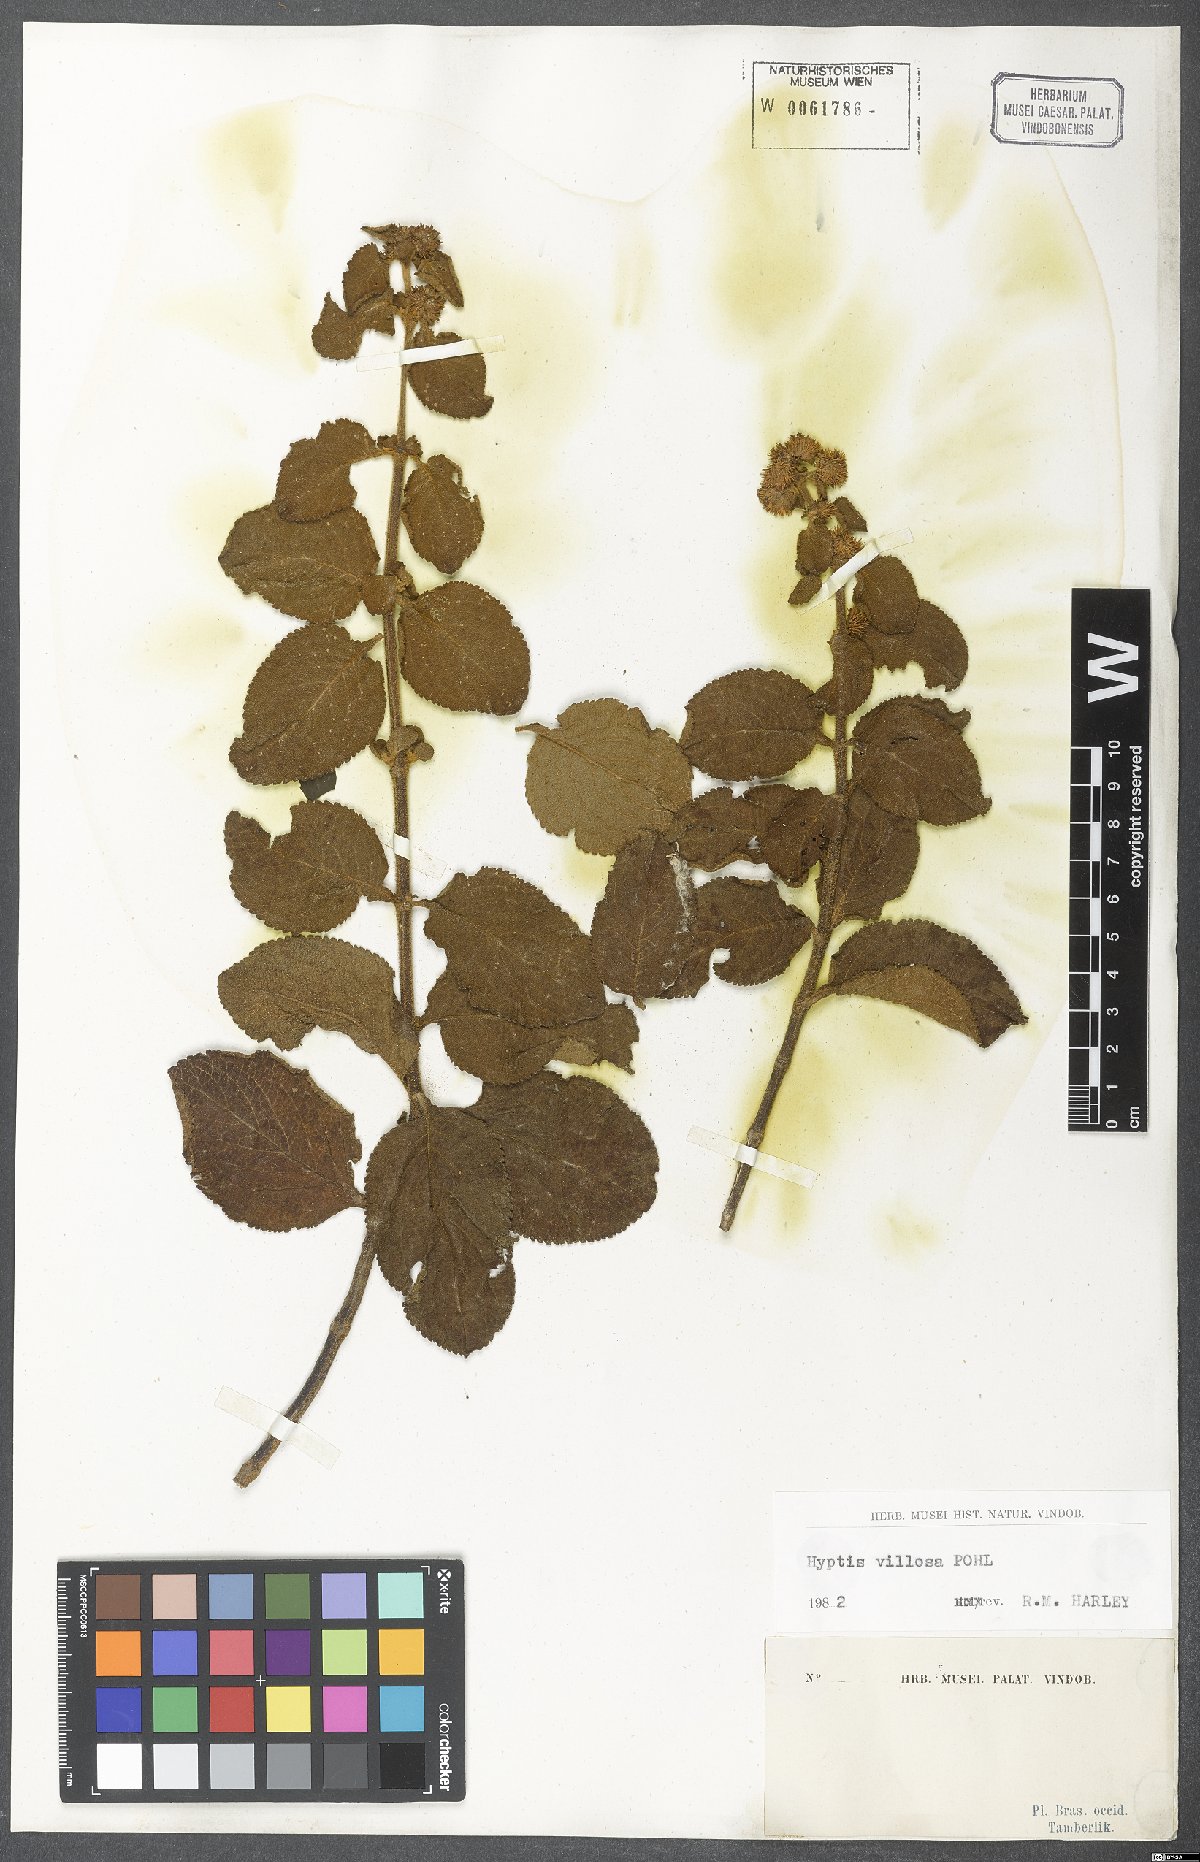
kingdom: Plantae
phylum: Tracheophyta
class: Magnoliopsida
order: Lamiales
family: Lamiaceae
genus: Hyptis
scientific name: Hyptis villosa
